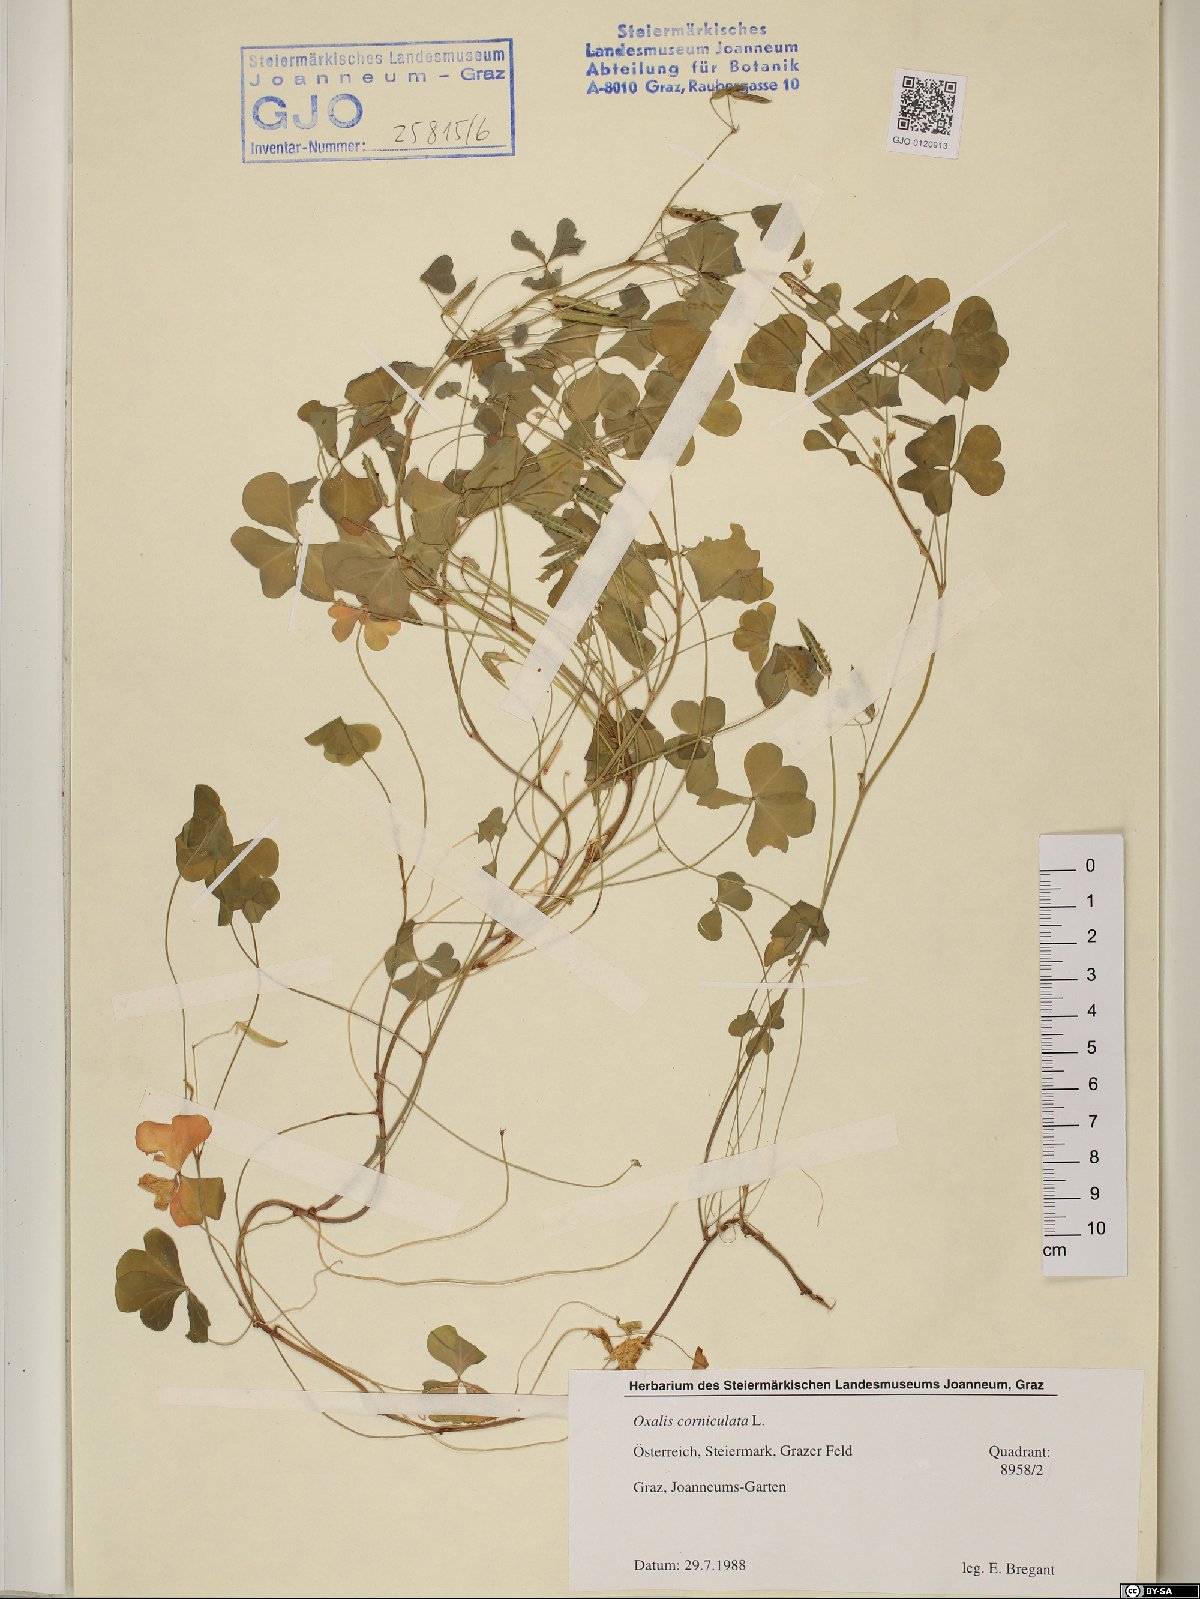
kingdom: Plantae
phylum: Tracheophyta
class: Magnoliopsida
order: Oxalidales
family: Oxalidaceae
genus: Oxalis
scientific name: Oxalis corniculata
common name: Procumbent yellow-sorrel
